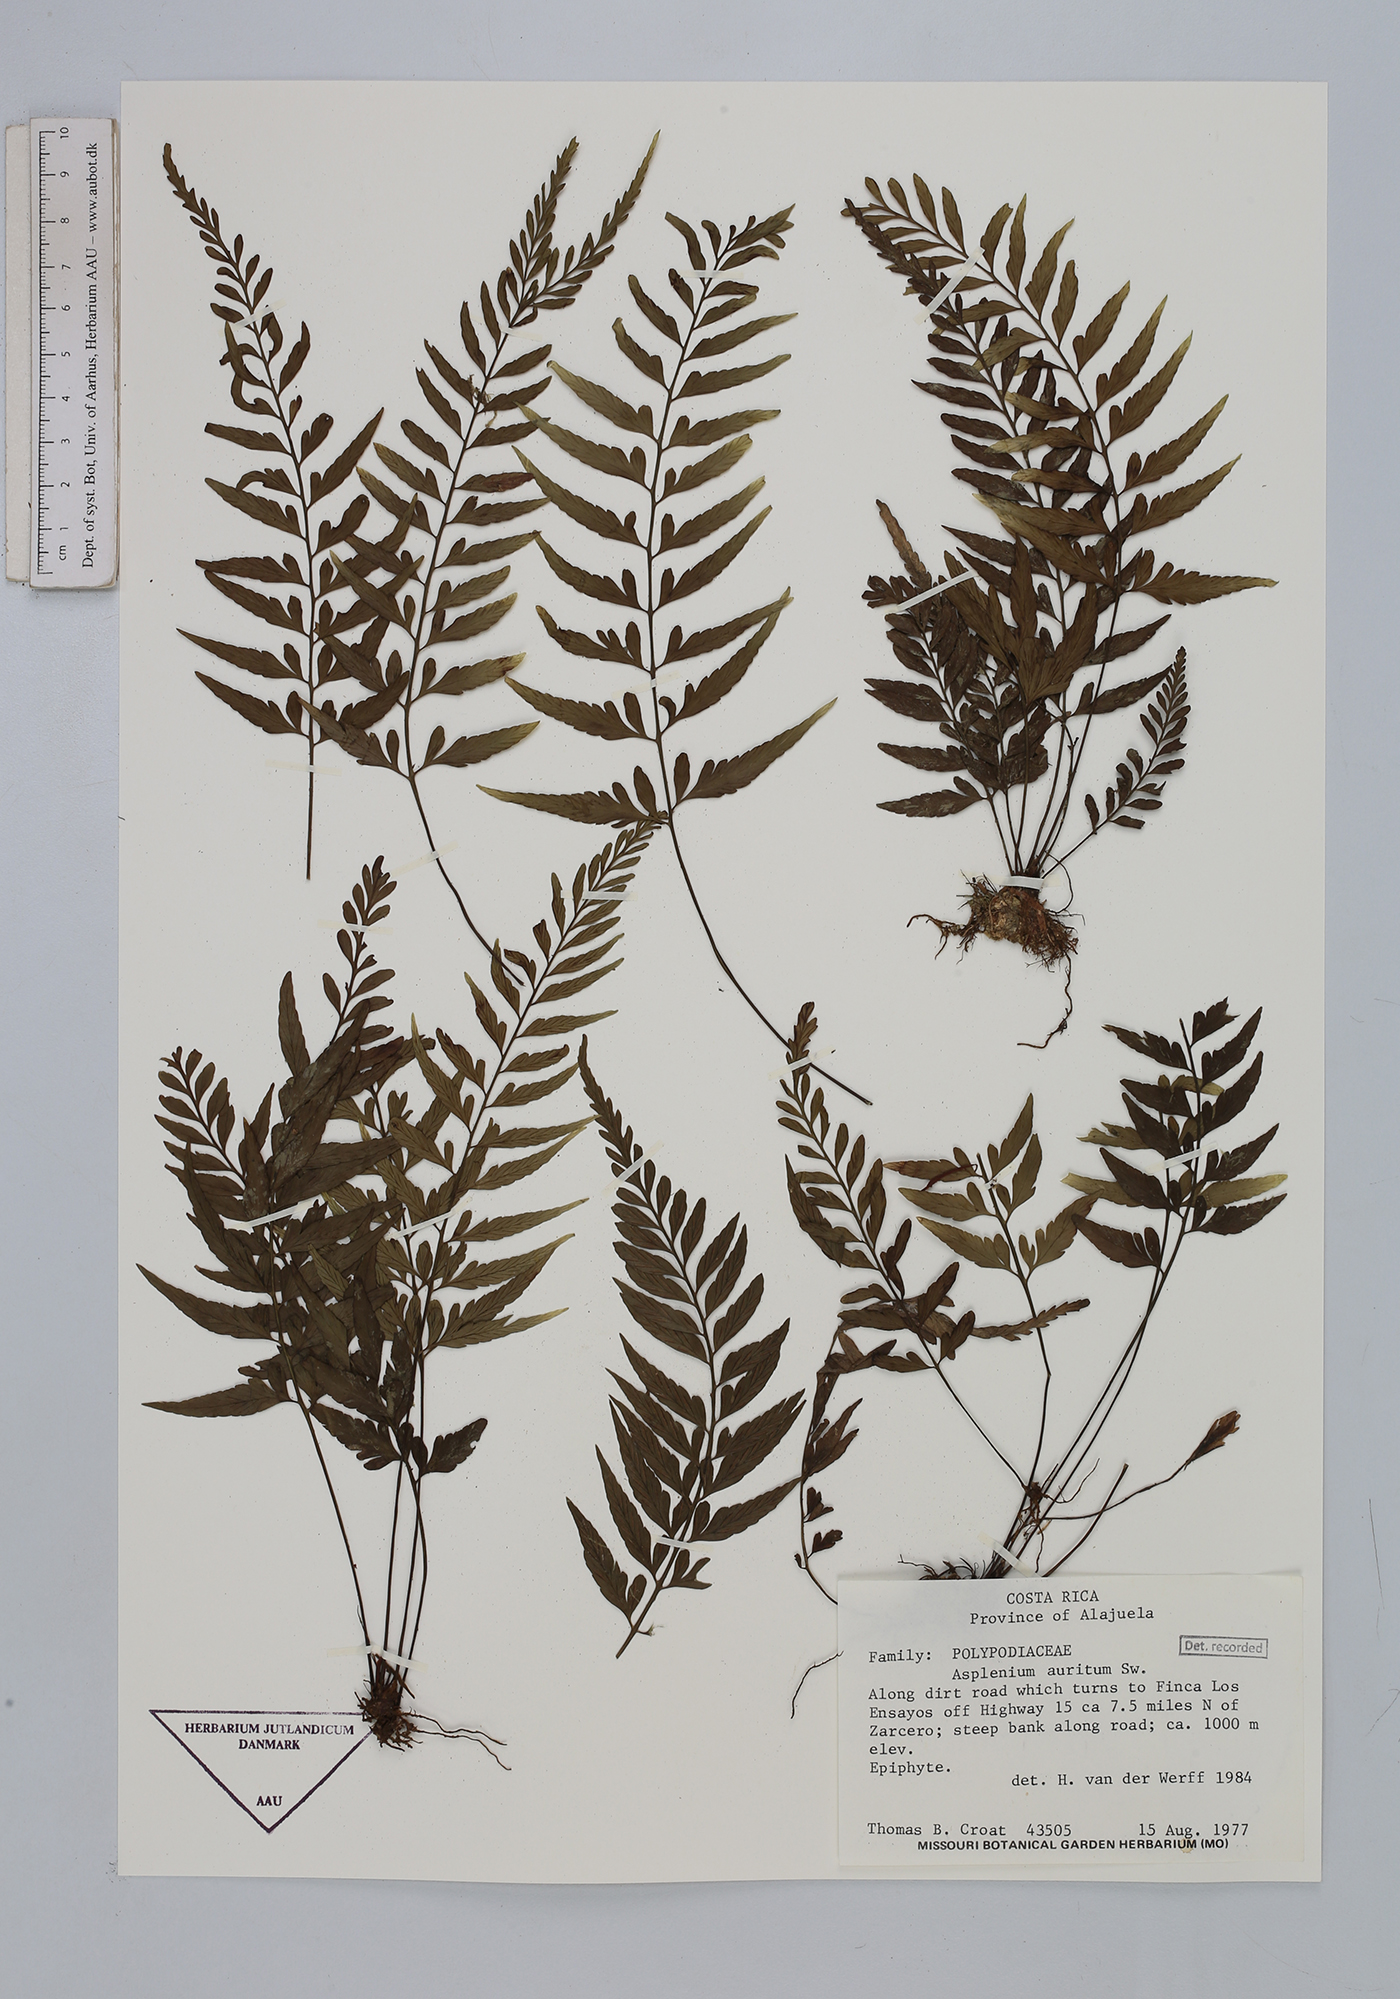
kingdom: Plantae
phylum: Tracheophyta
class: Polypodiopsida
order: Polypodiales
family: Aspleniaceae
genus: Asplenium
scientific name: Asplenium auritum
